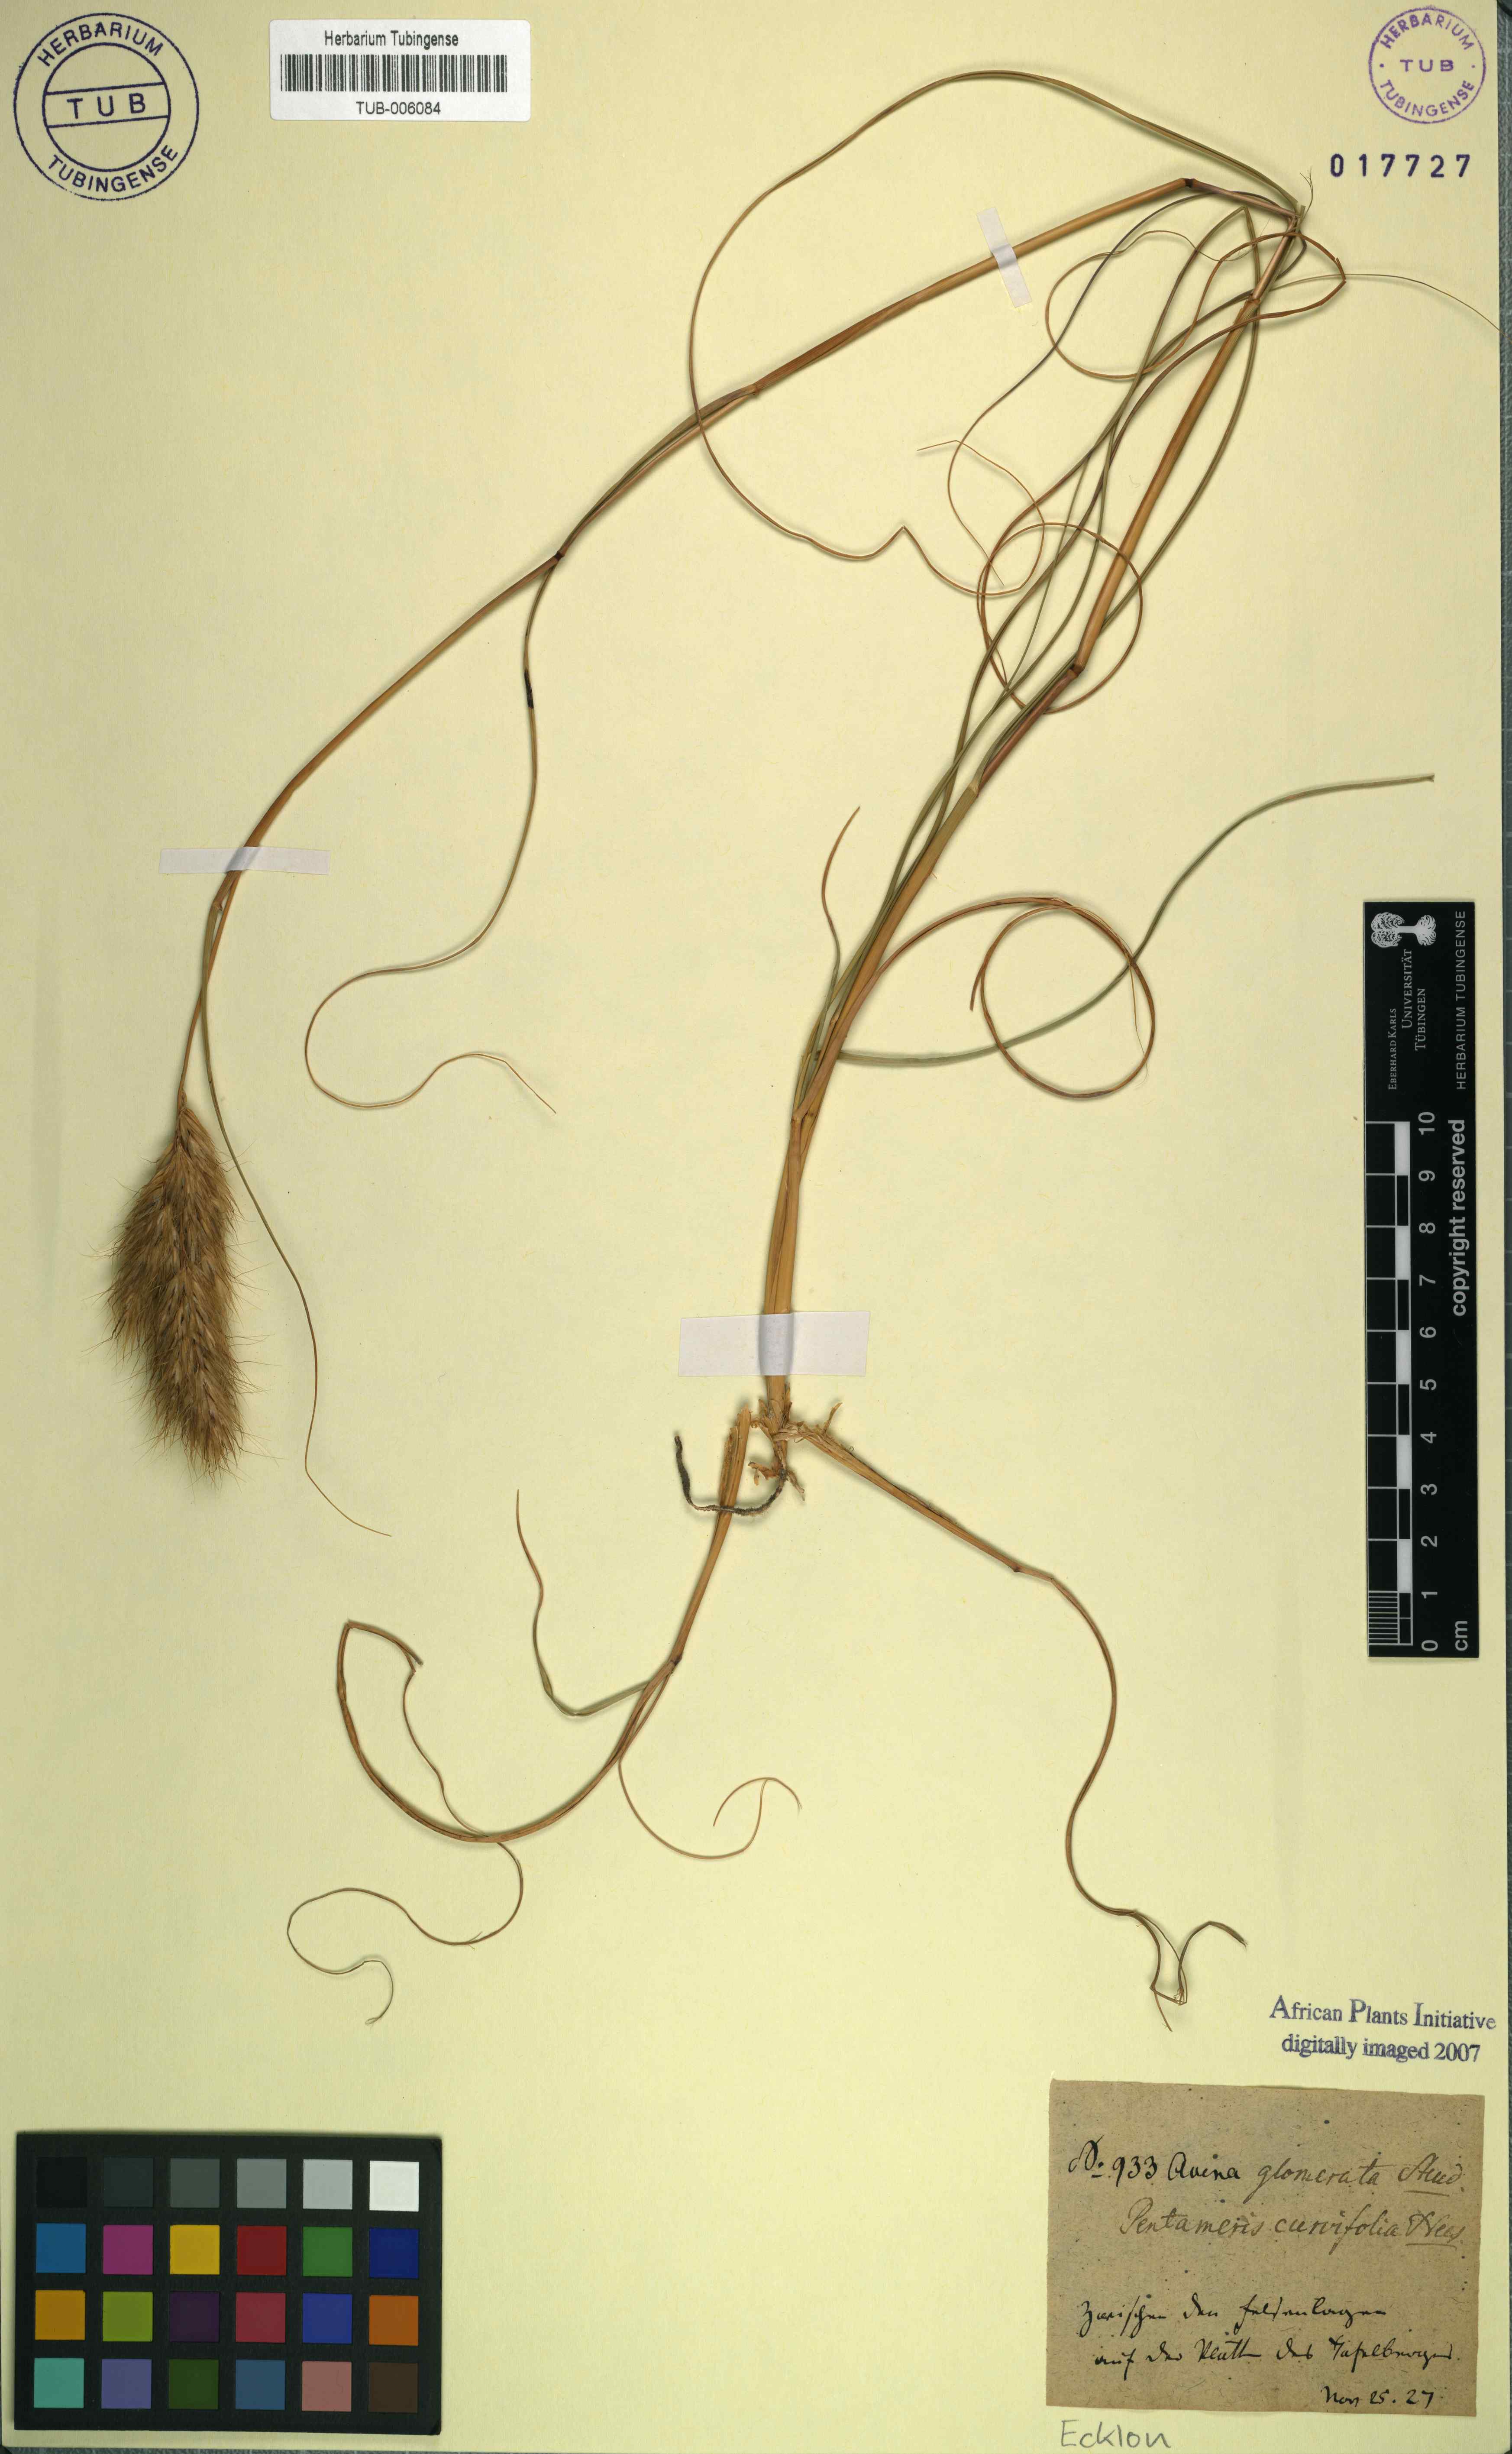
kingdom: Plantae
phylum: Tracheophyta
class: Liliopsida
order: Poales
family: Poaceae
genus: Pentameris
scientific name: Pentameris curvifolia
